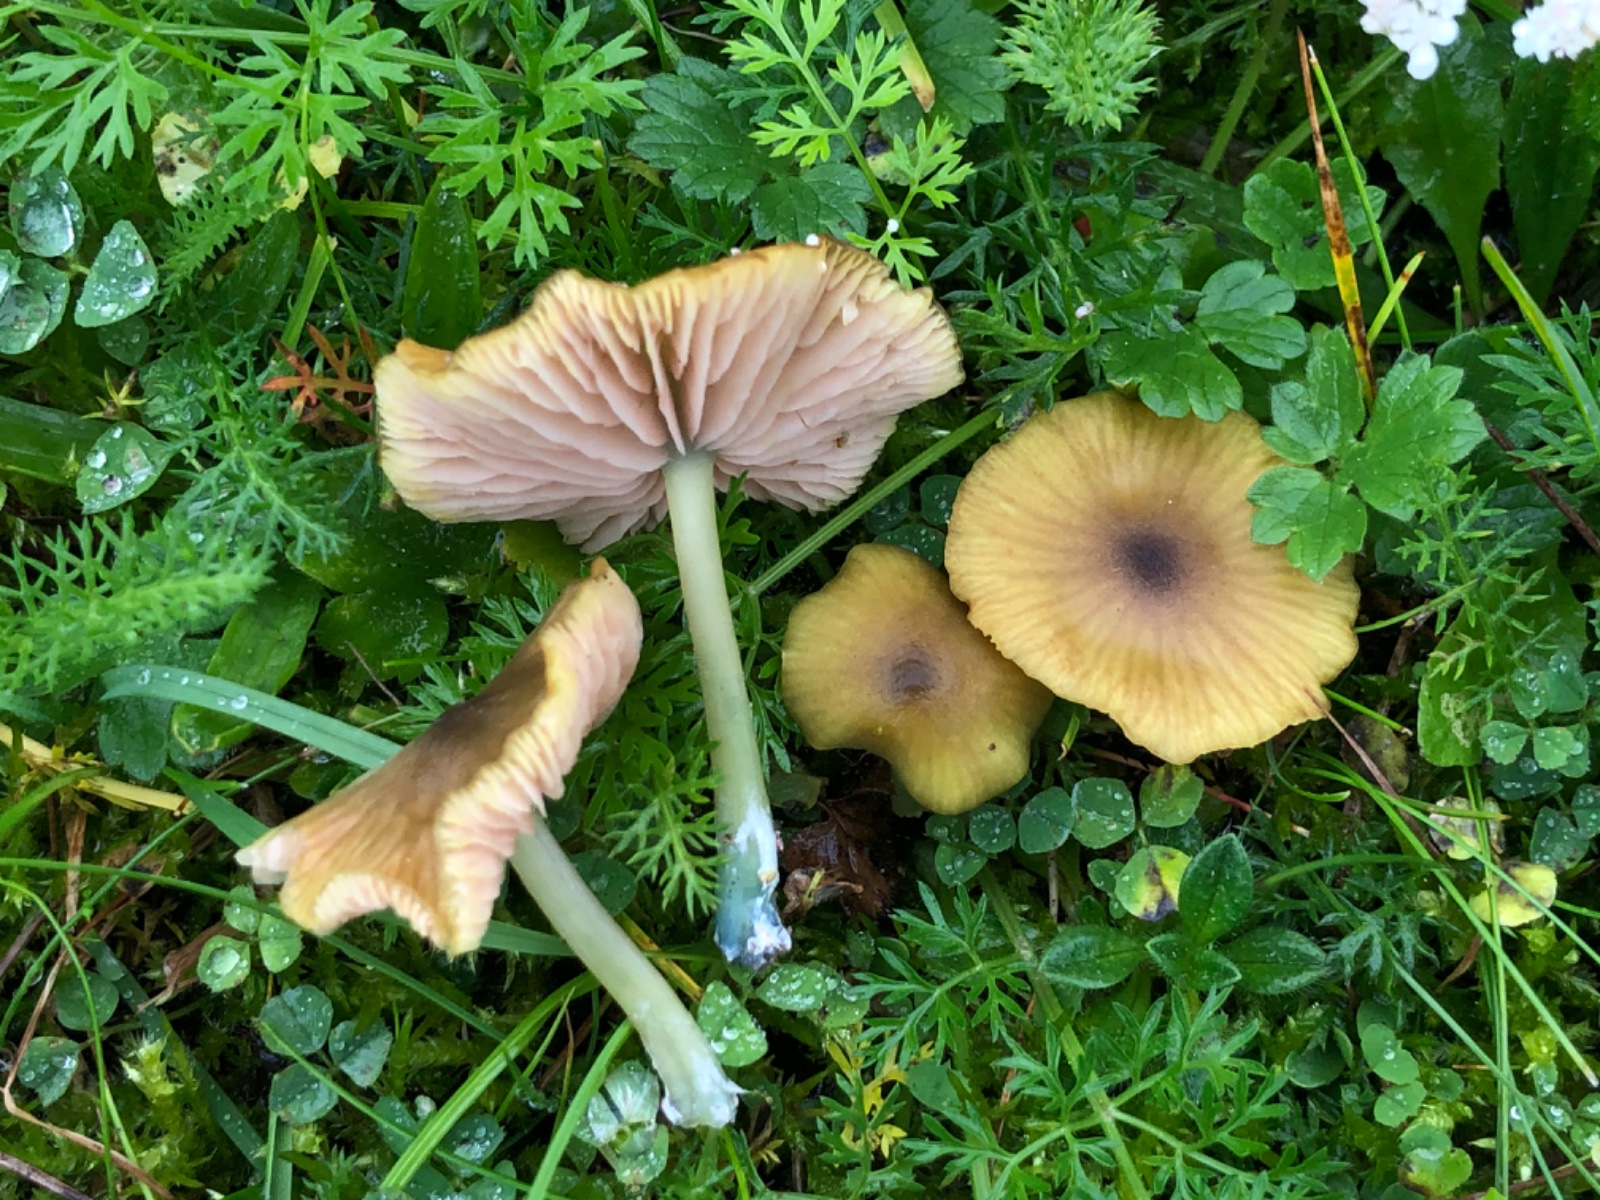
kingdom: Fungi
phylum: Basidiomycota
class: Agaricomycetes
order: Agaricales
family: Entolomataceae
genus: Entoloma
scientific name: Entoloma verae
